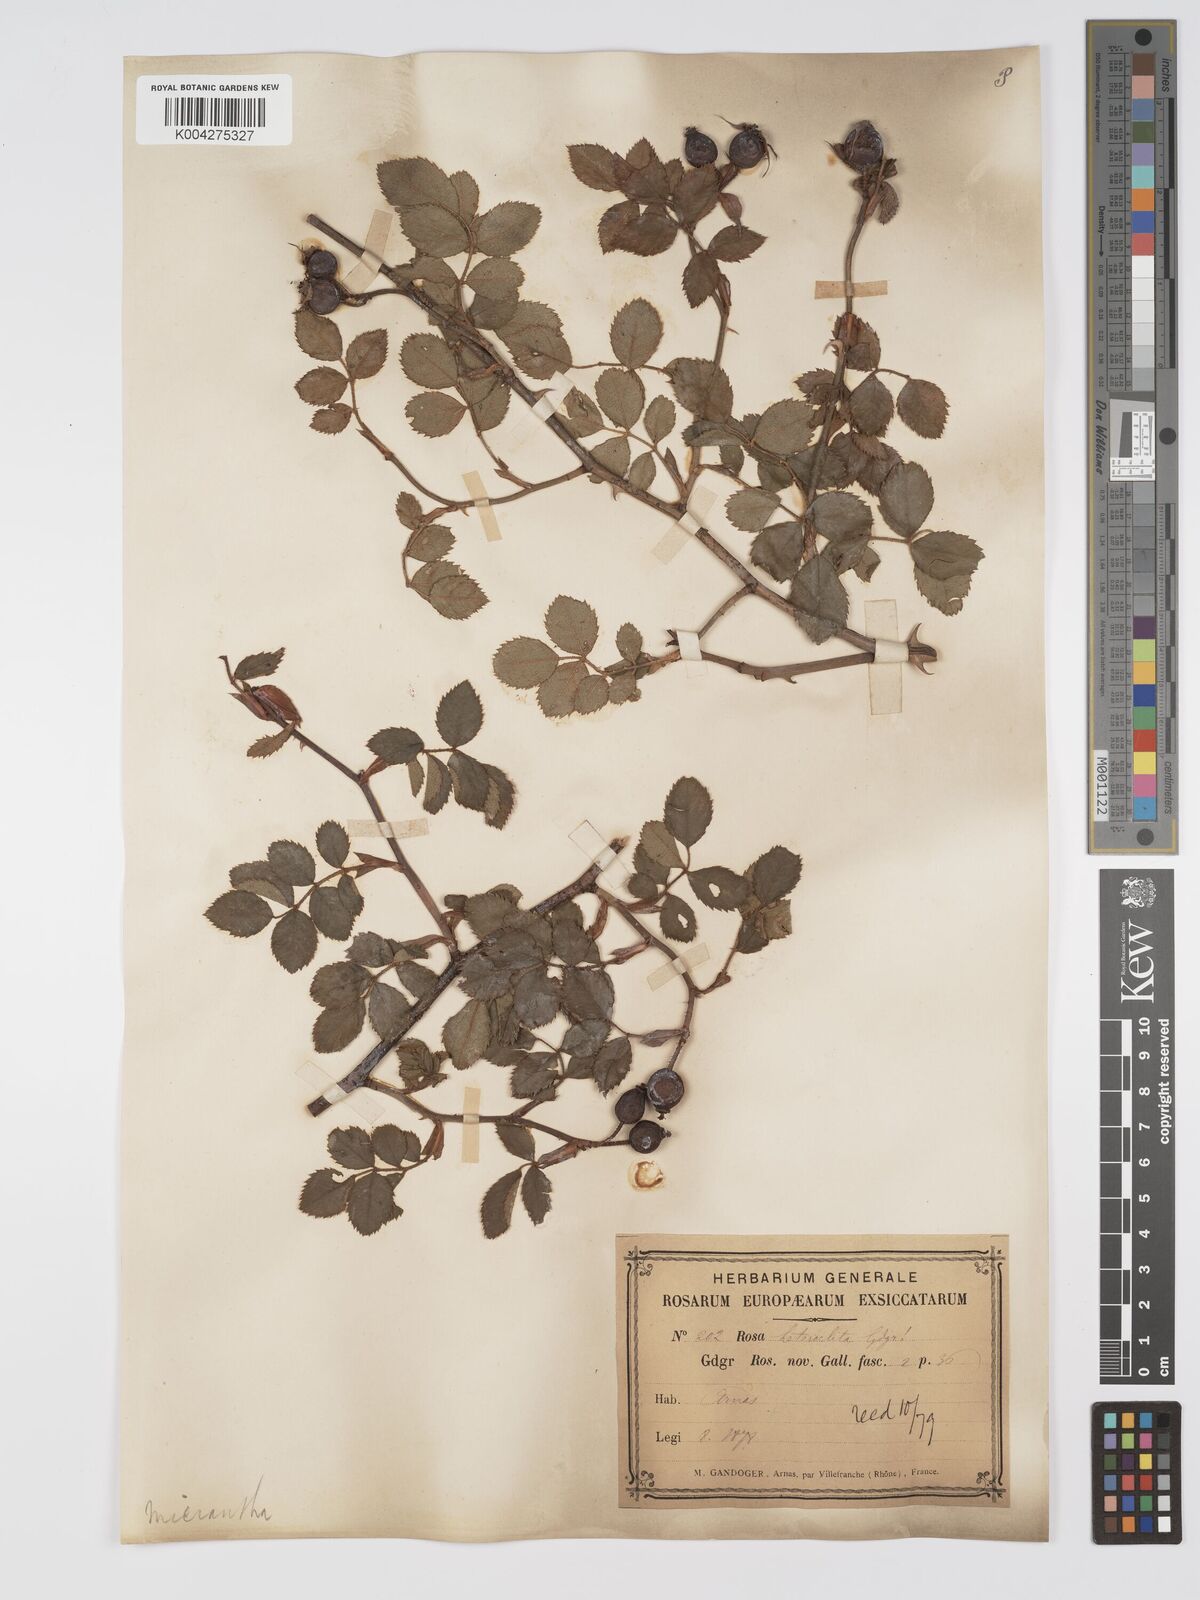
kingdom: Plantae
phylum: Tracheophyta
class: Magnoliopsida
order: Rosales
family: Rosaceae
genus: Rosa
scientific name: Rosa
